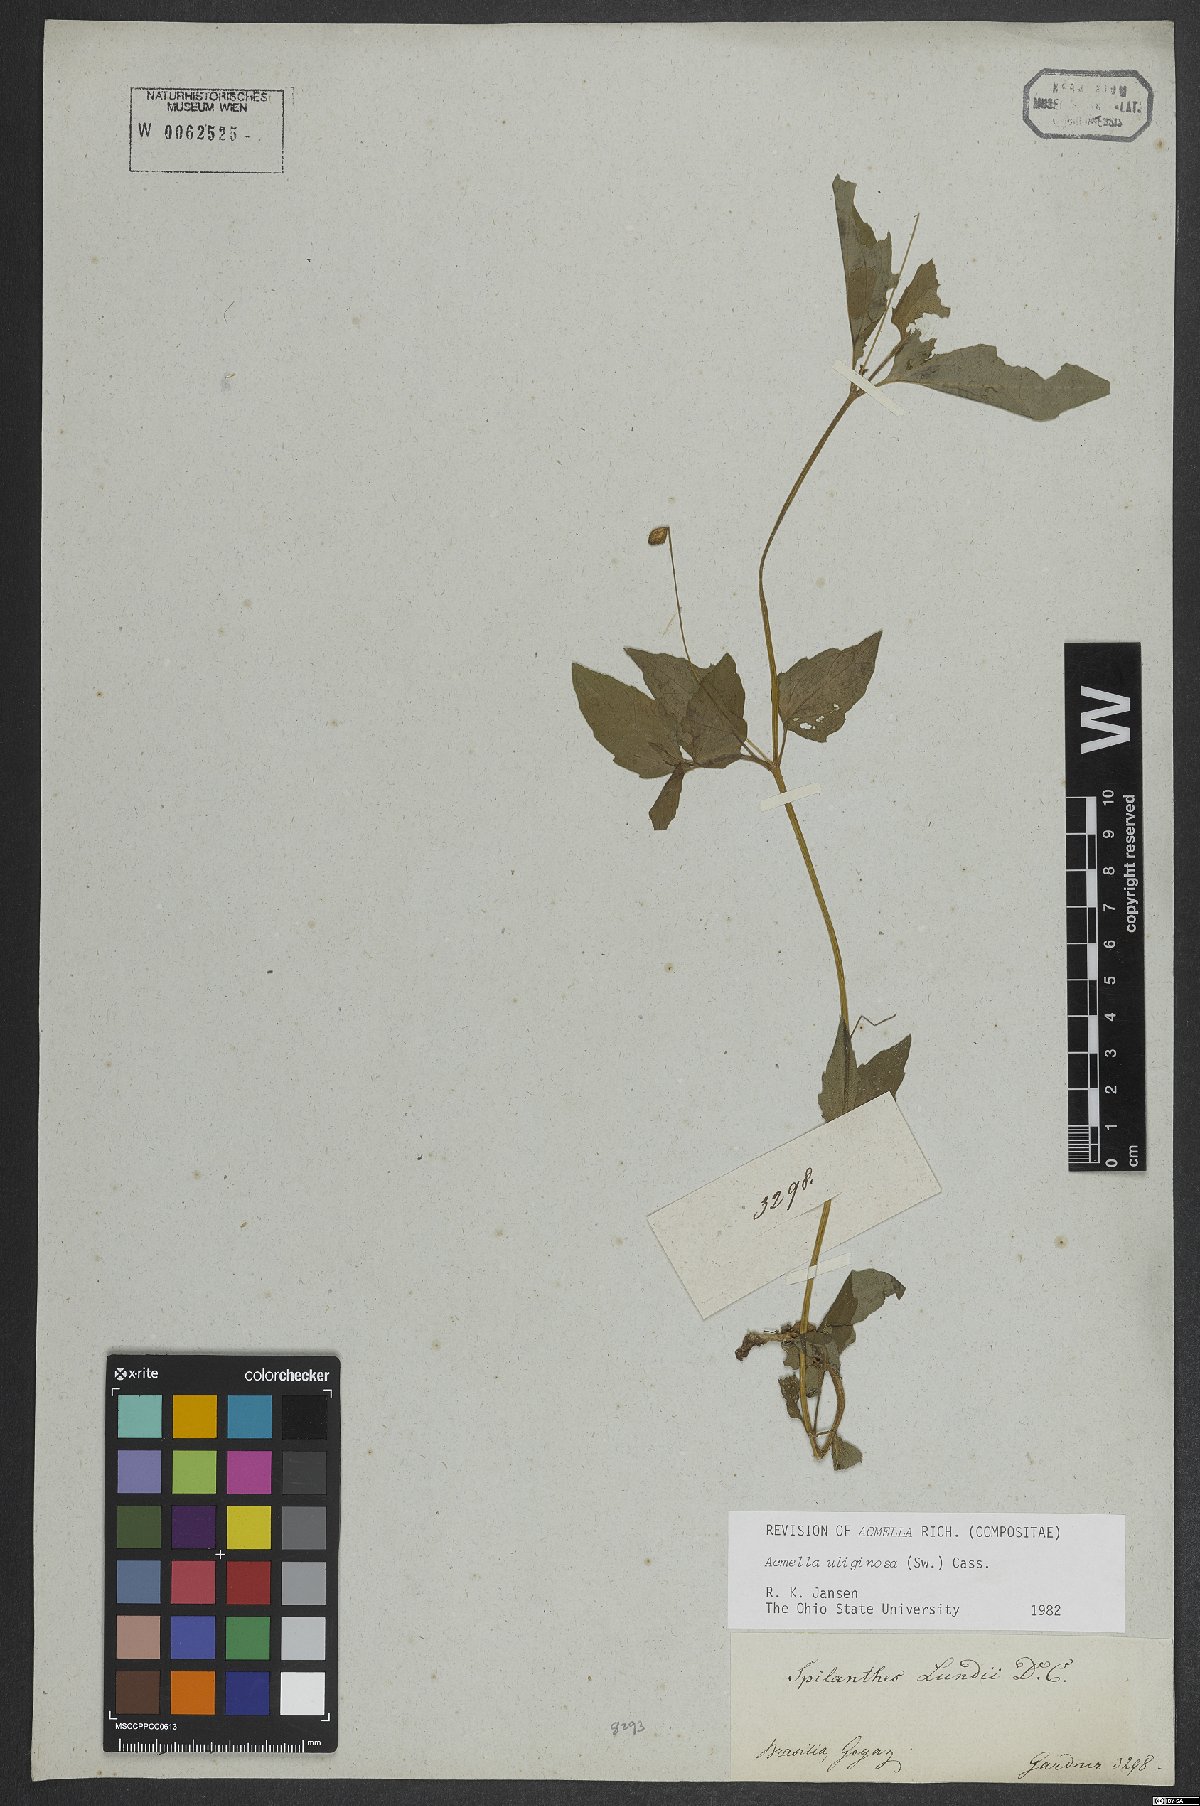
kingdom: Plantae
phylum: Tracheophyta
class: Magnoliopsida
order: Asterales
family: Asteraceae
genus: Acmella
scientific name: Acmella uliginosa
